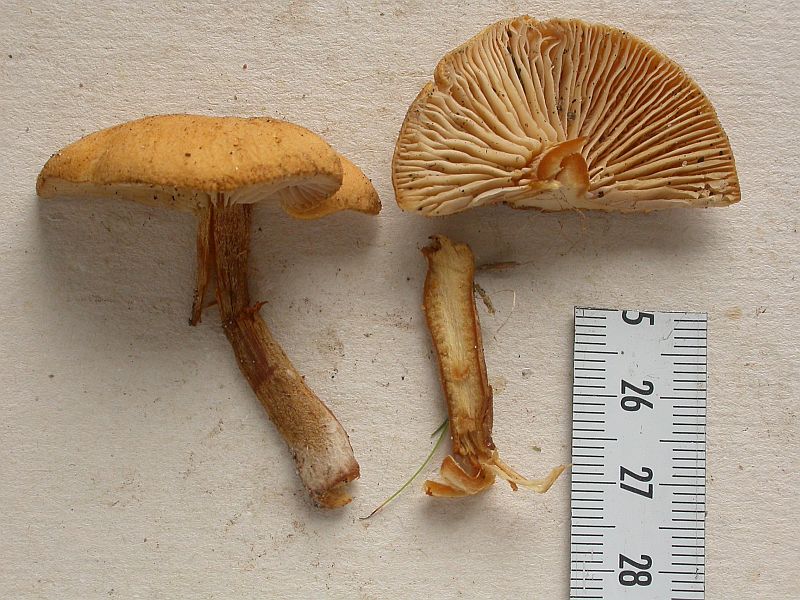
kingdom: Fungi
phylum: Basidiomycota
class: Agaricomycetes
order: Agaricales
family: Tricholomataceae
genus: Cystoderma
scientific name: Cystoderma amianthinum
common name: okkergul grynhat
